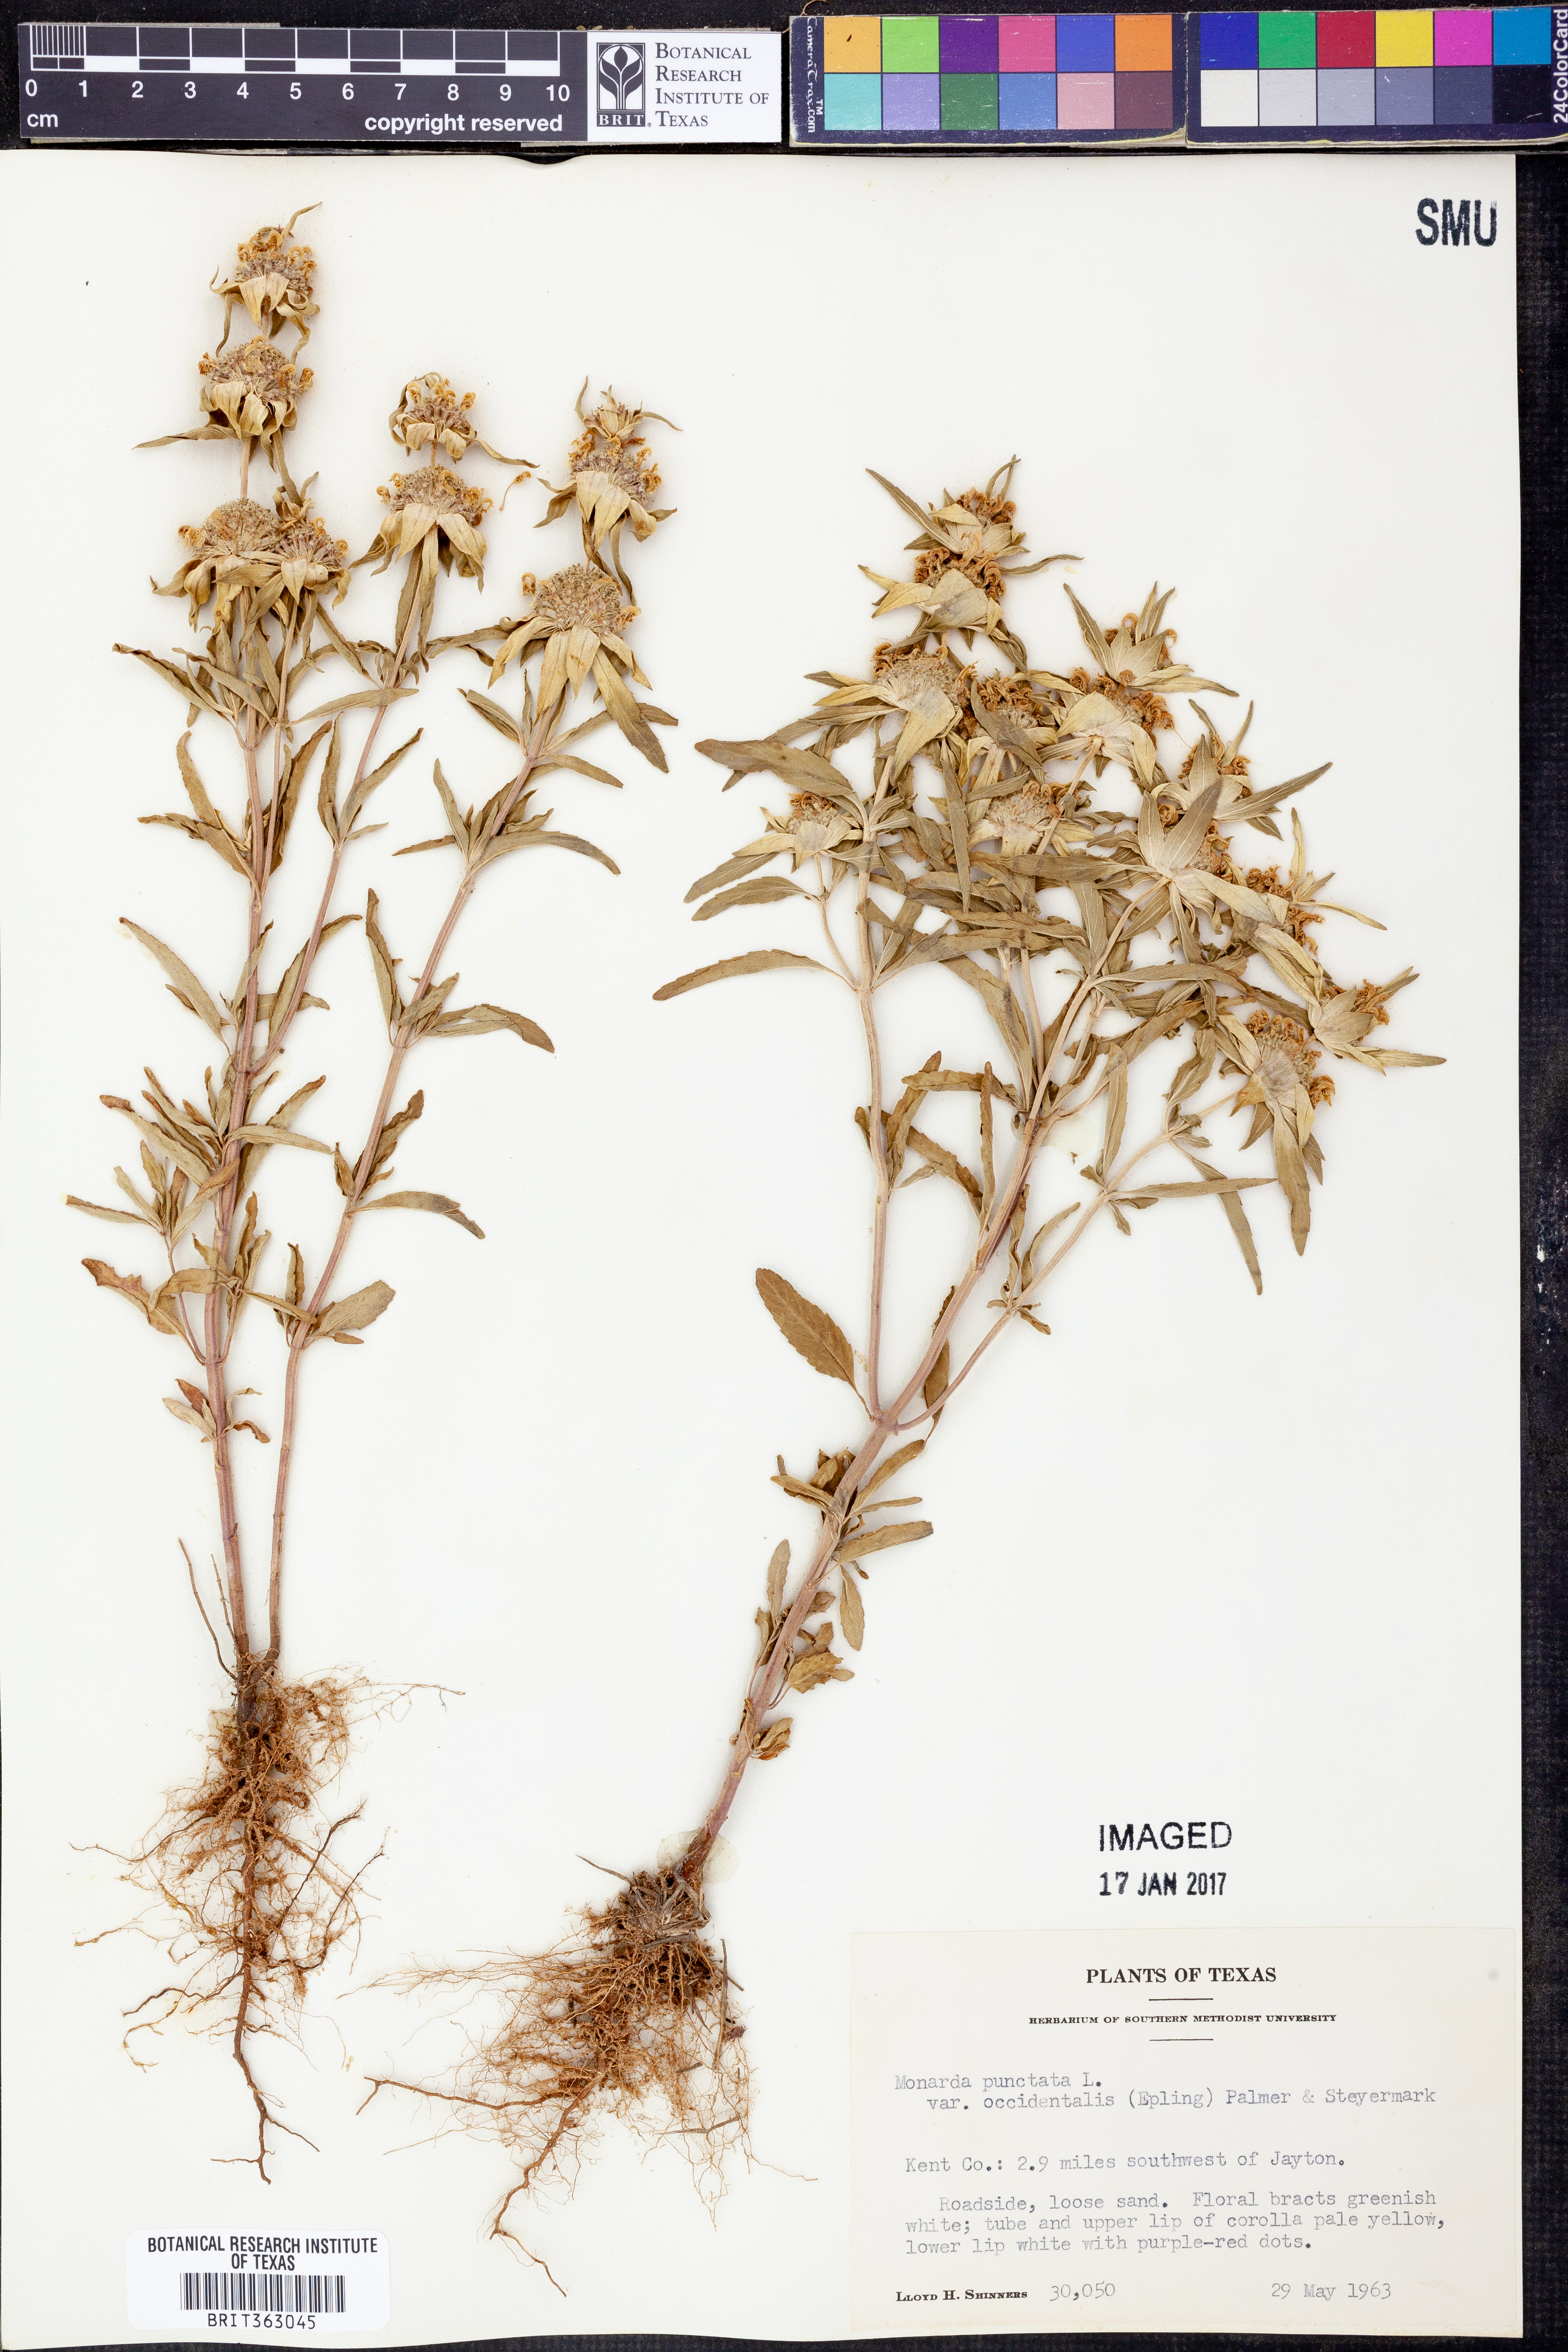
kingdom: Plantae
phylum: Tracheophyta
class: Magnoliopsida
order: Lamiales
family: Lamiaceae
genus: Monarda
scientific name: Monarda punctata
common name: Dotted monarda
